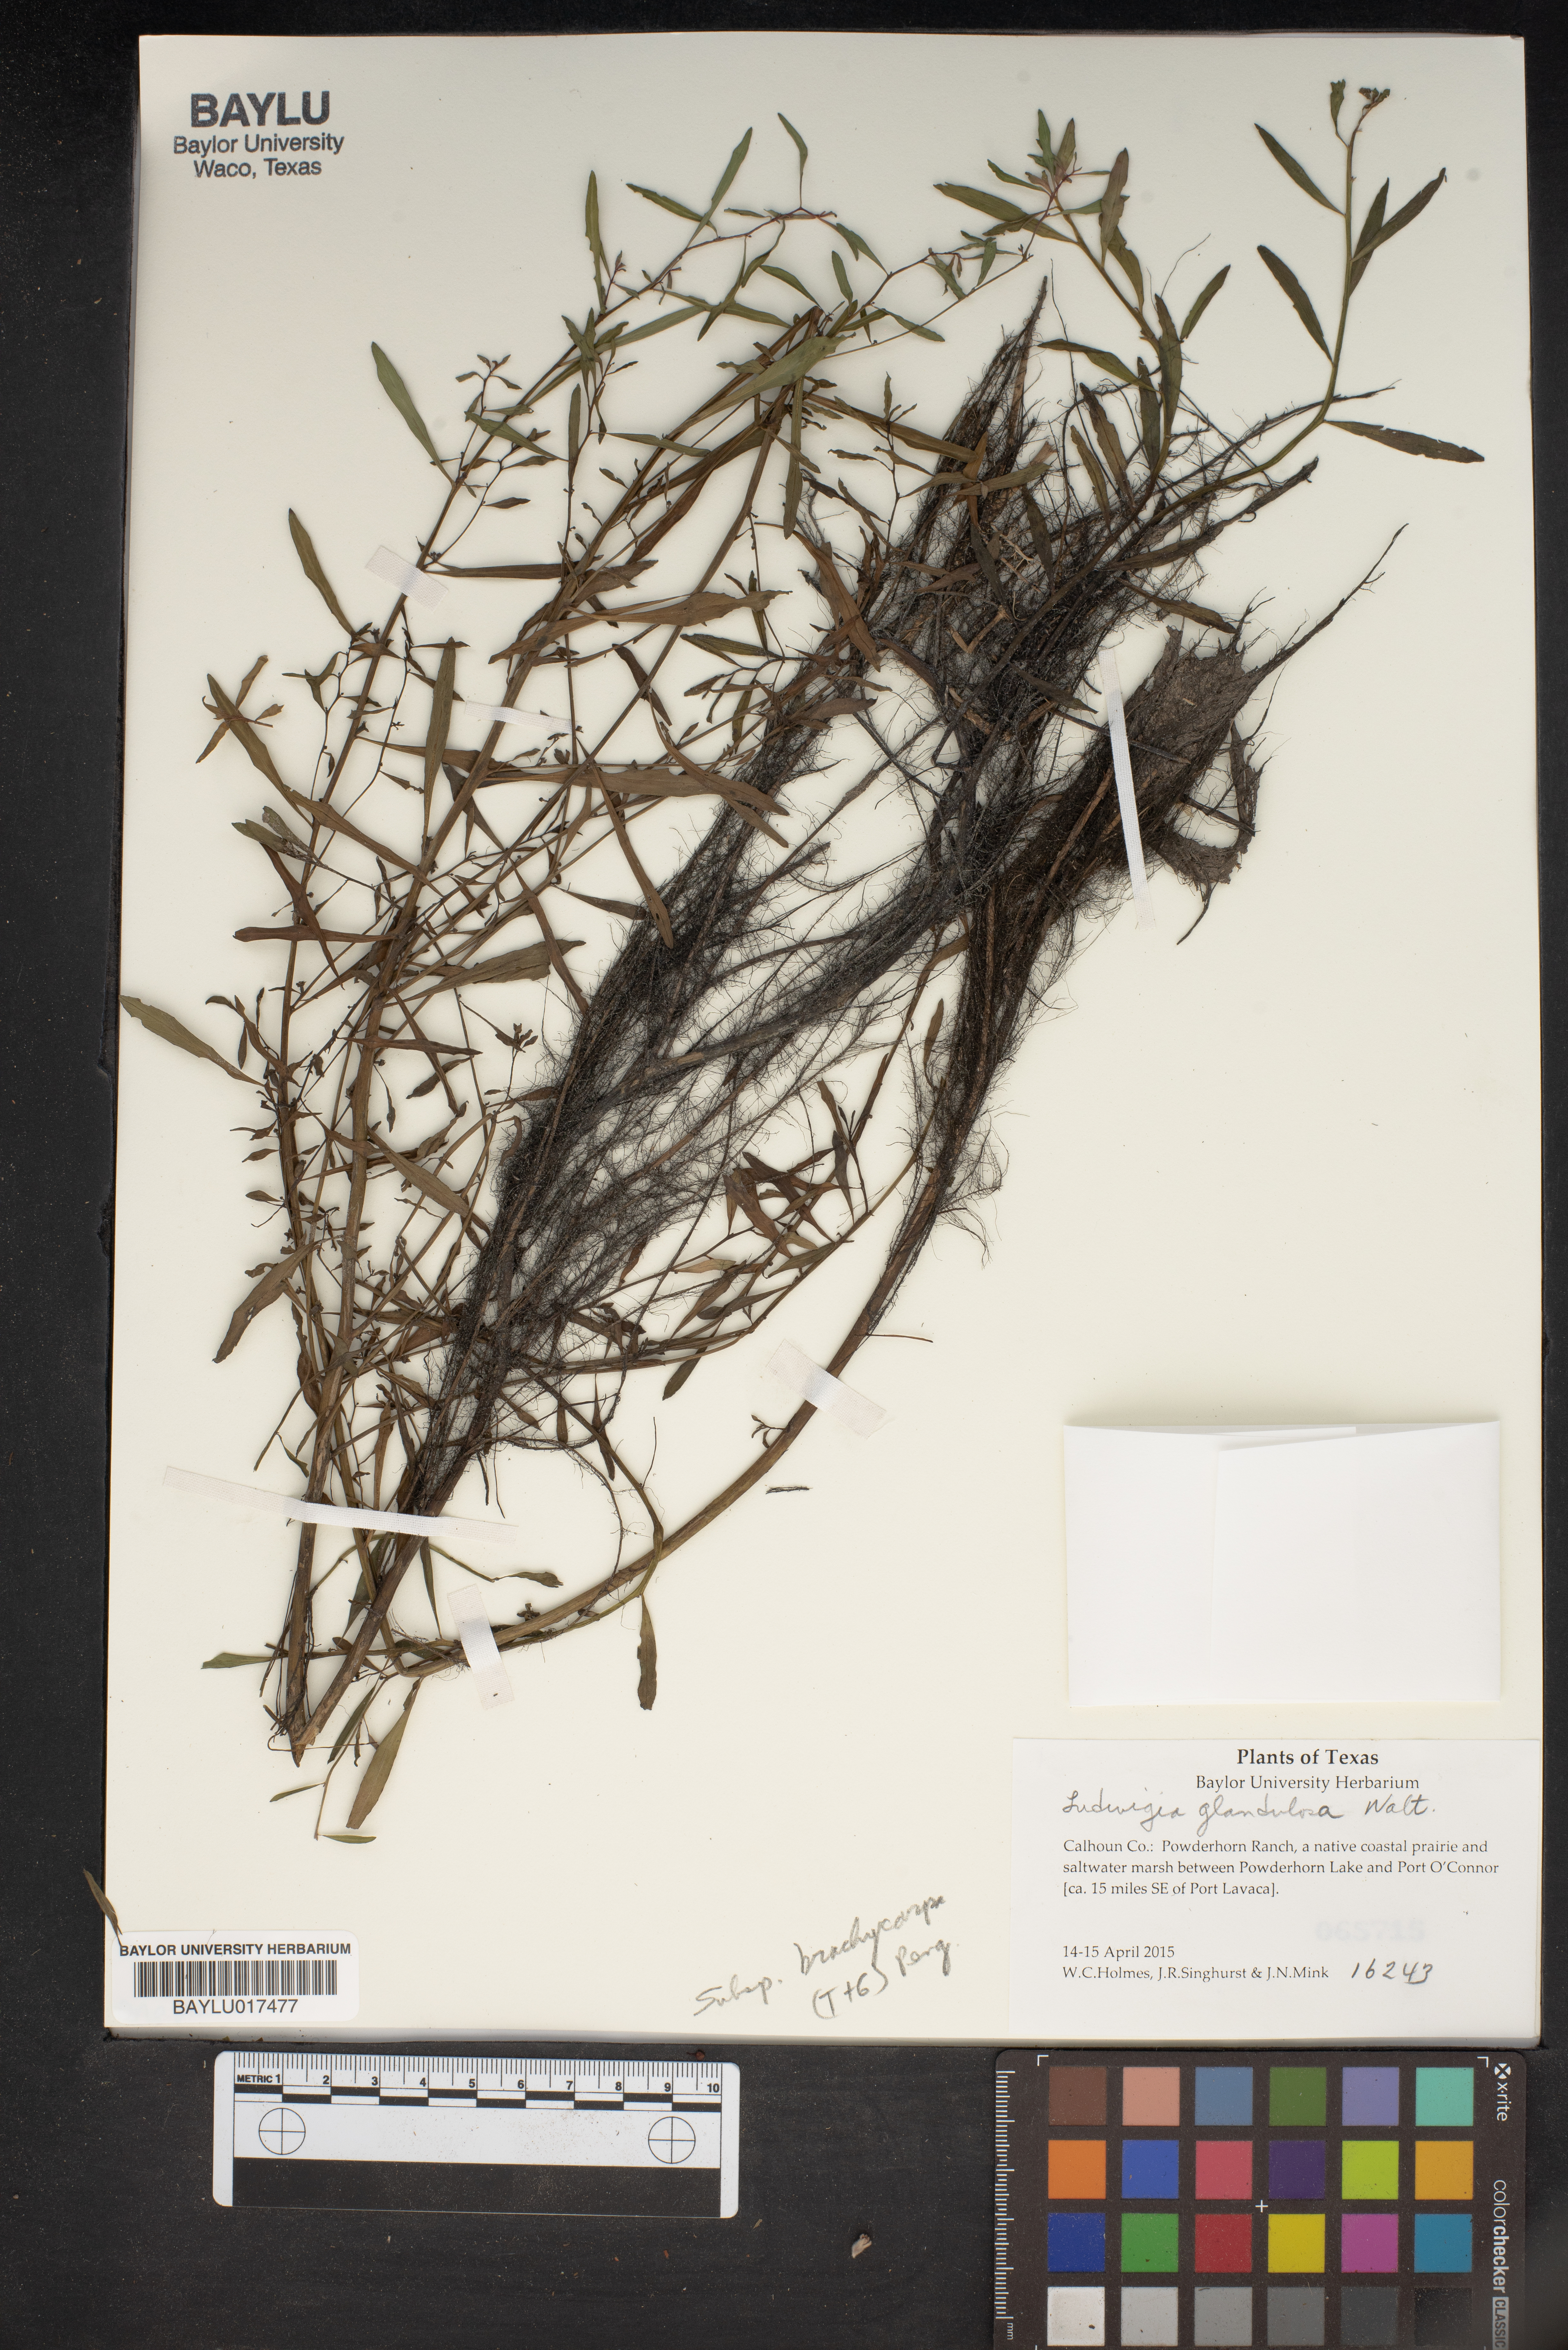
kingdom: Plantae
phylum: Tracheophyta
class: Magnoliopsida
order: Myrtales
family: Onagraceae
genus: Ludwigia
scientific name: Ludwigia glandulosa
